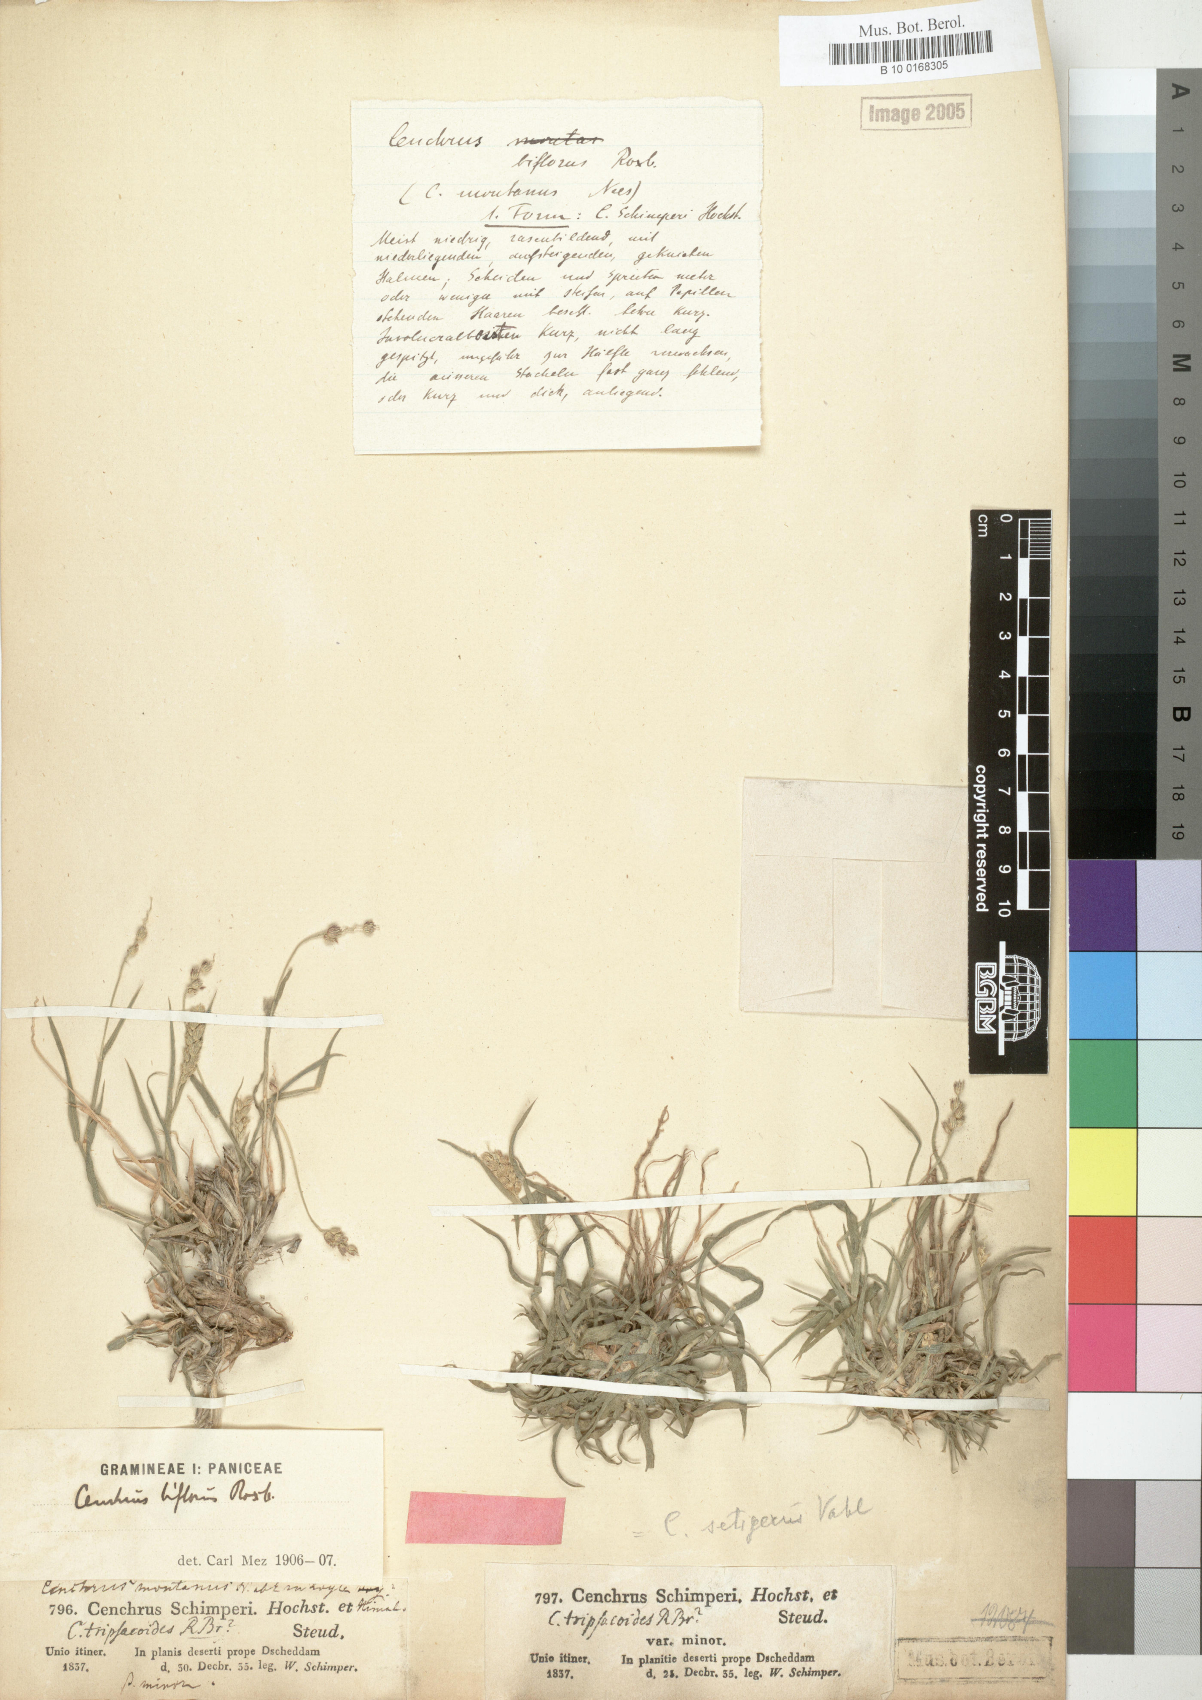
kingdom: Plantae
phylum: Tracheophyta
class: Liliopsida
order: Poales
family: Poaceae
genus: Cenchrus
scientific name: Cenchrus setigerus
